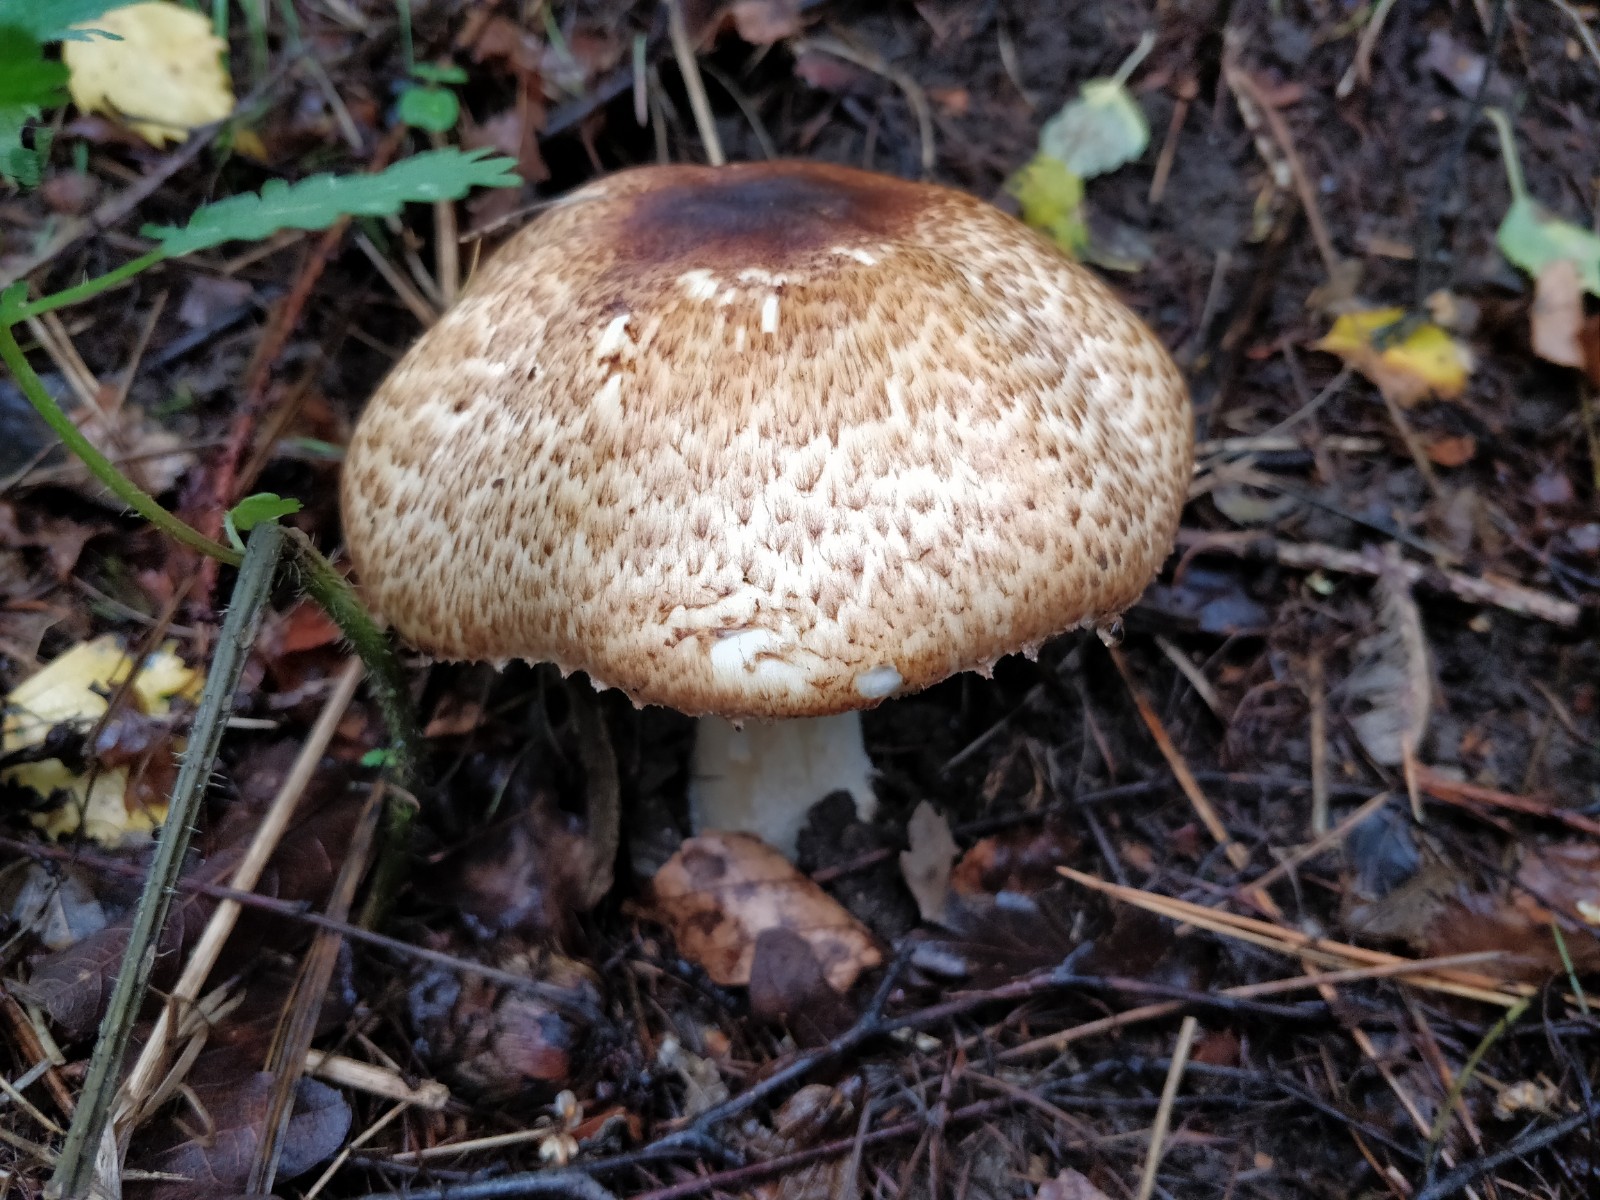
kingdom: Fungi
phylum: Basidiomycota
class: Agaricomycetes
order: Agaricales
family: Agaricaceae
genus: Agaricus
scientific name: Agaricus augustus
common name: prægtig champignon
